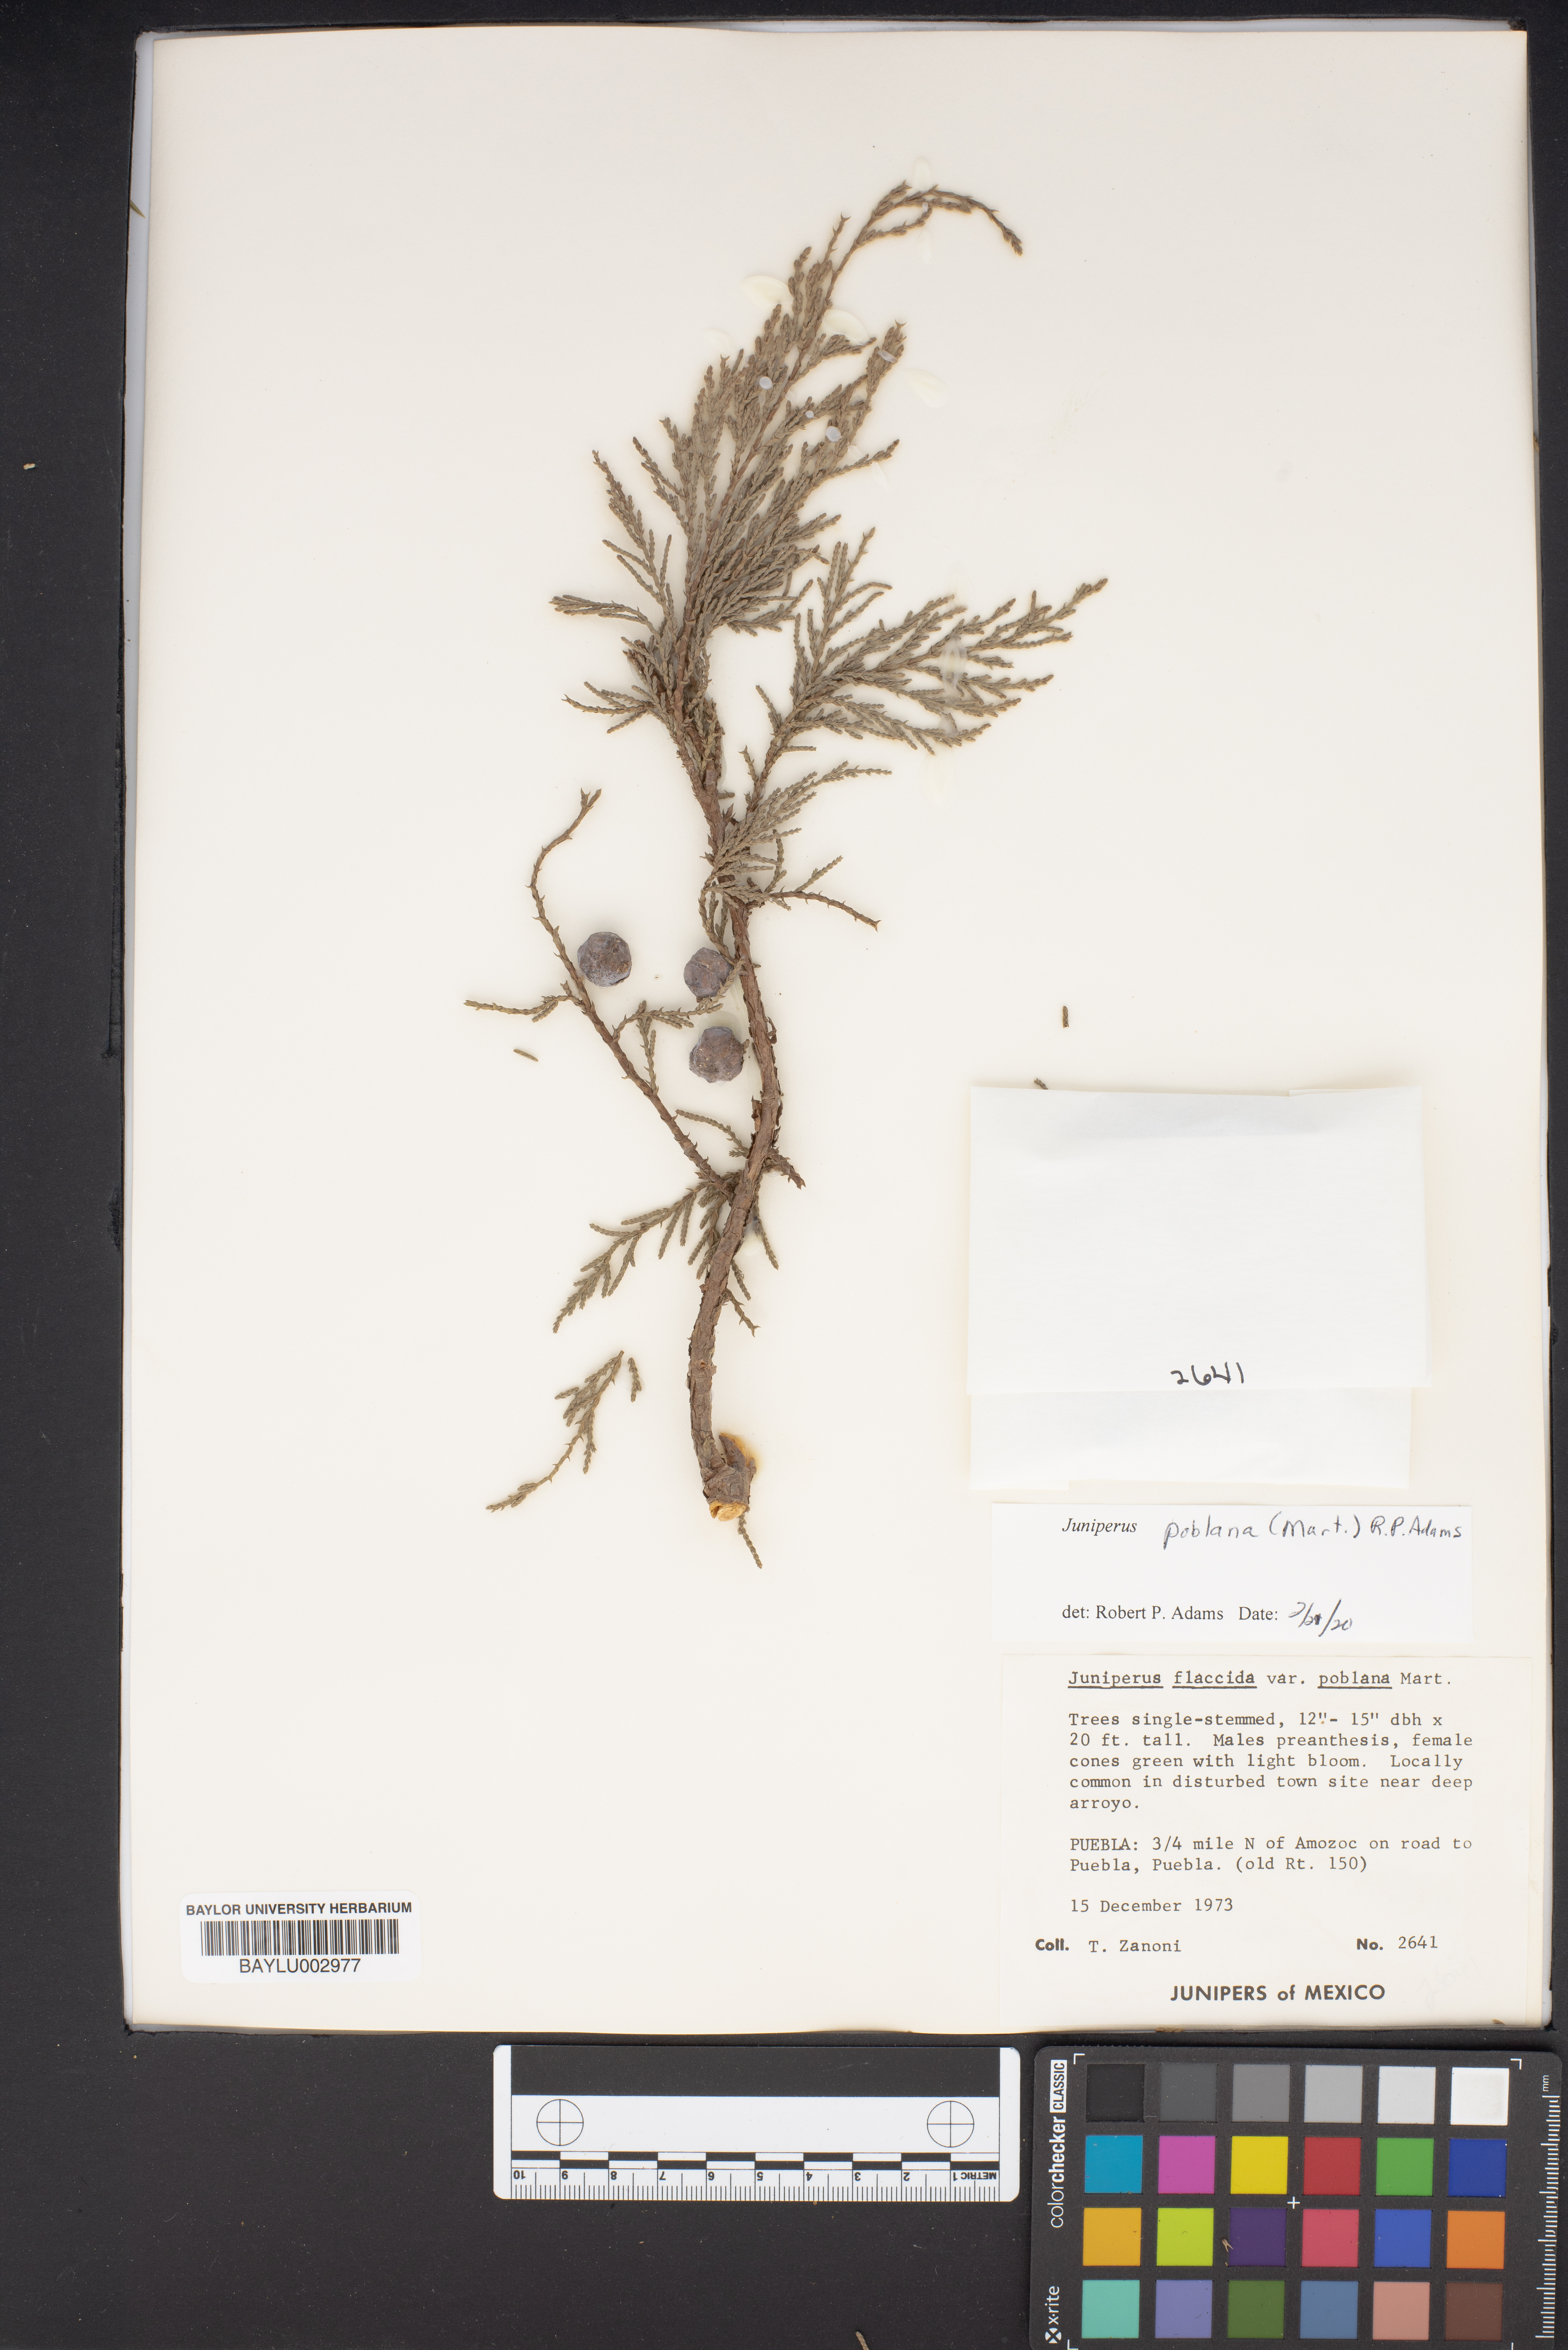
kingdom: Plantae
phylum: Tracheophyta
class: Pinopsida
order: Pinales
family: Cupressaceae
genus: Juniperus
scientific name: Juniperus flaccida
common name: Drooping juniper
